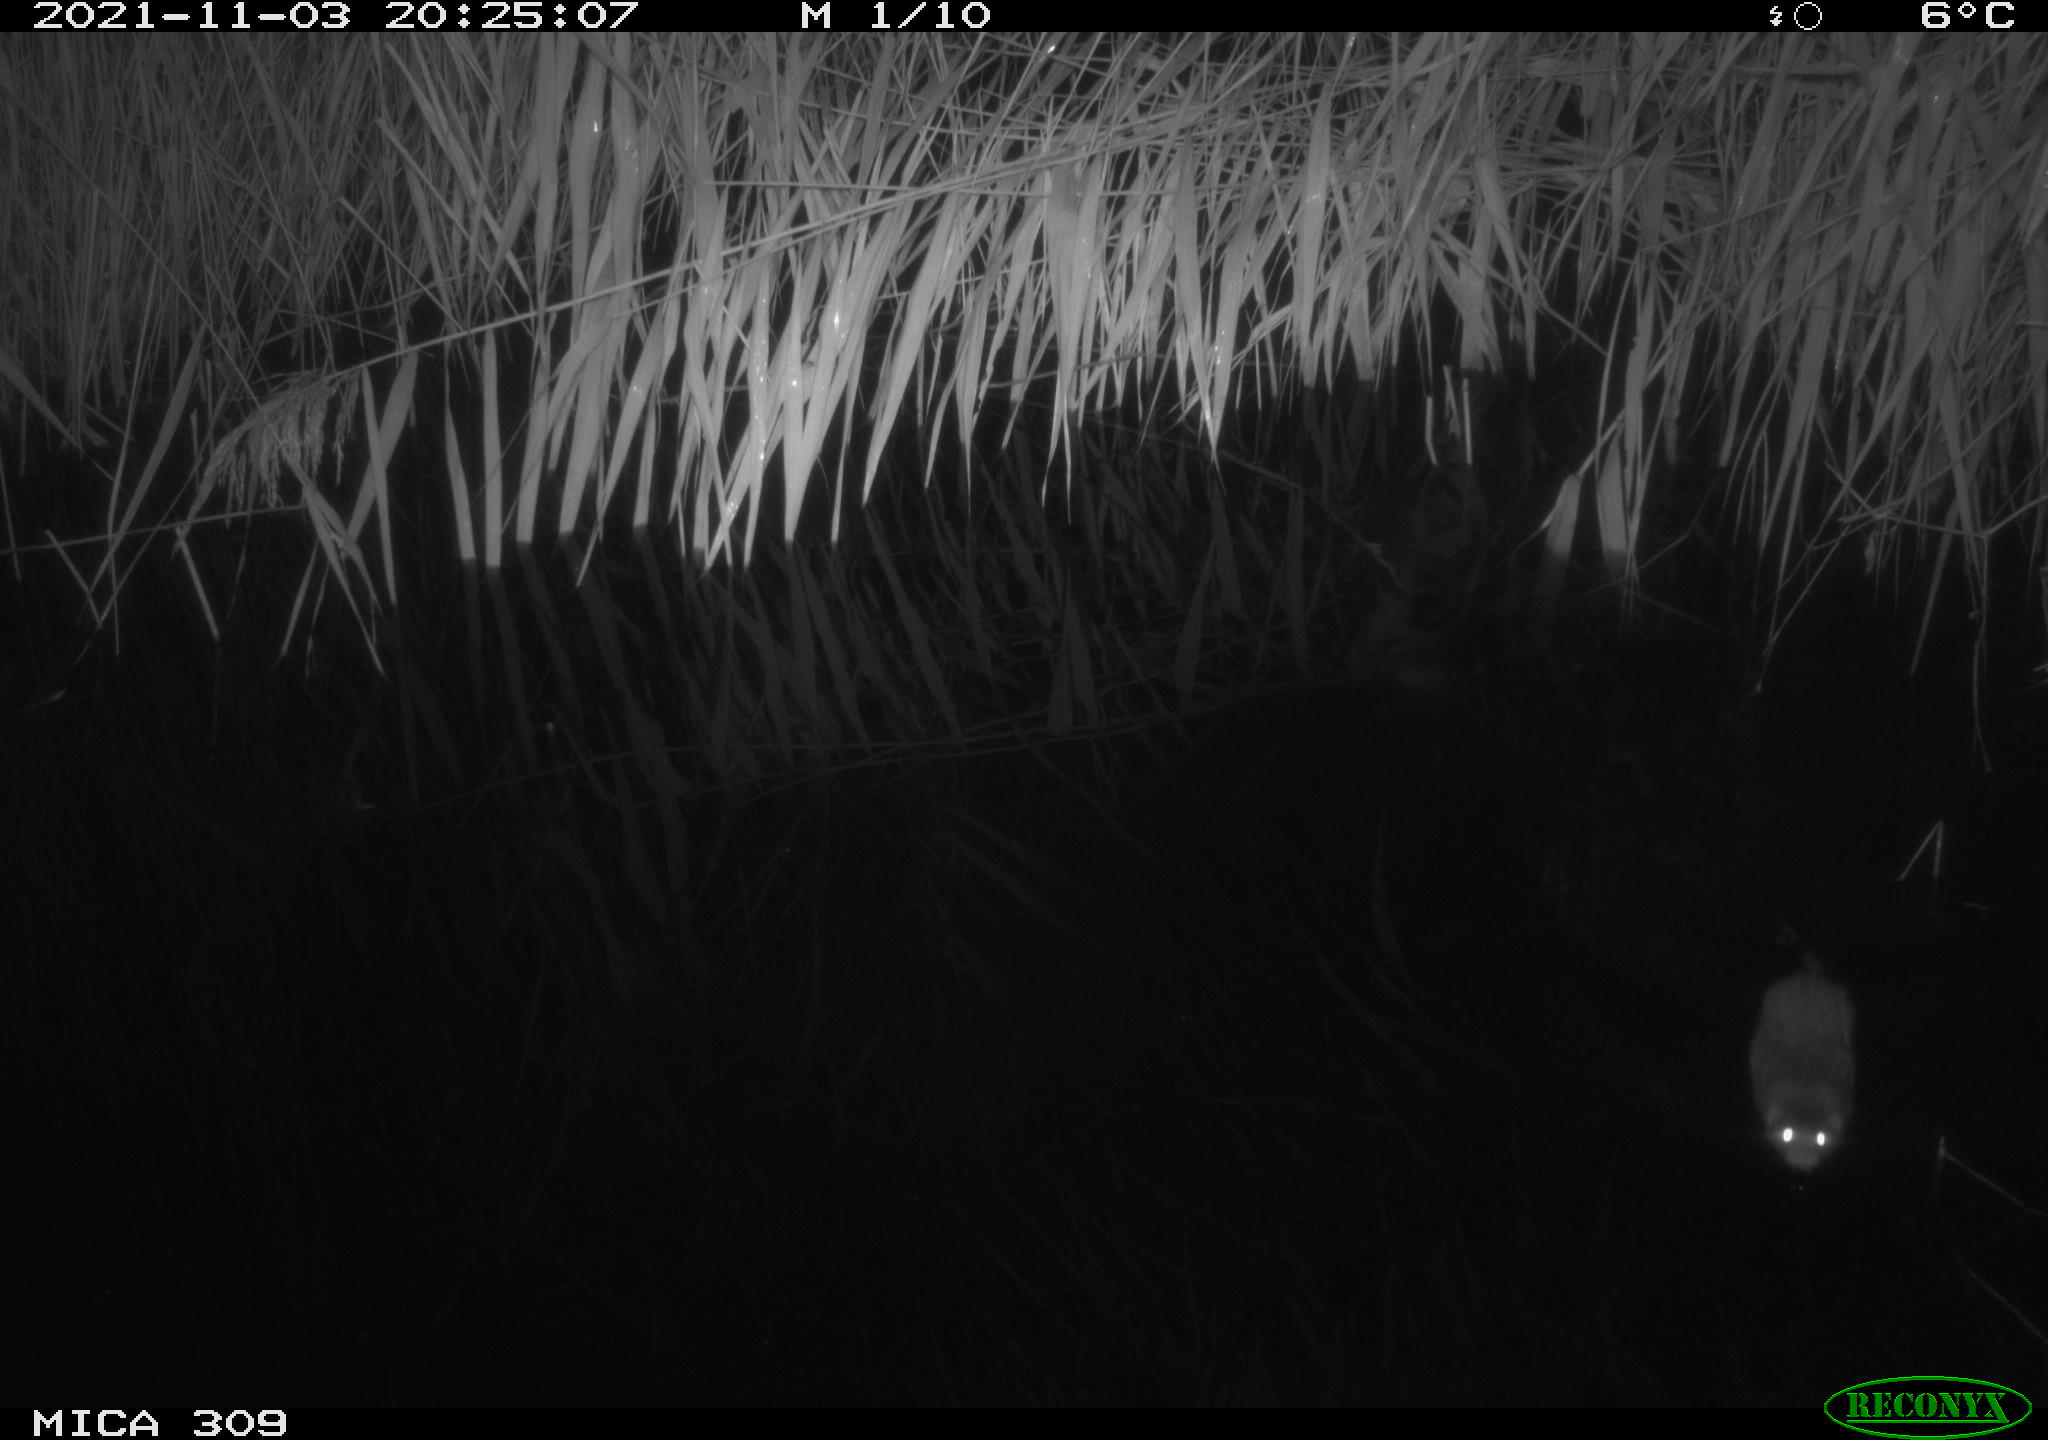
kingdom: Animalia
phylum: Chordata
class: Mammalia
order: Rodentia
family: Muridae
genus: Rattus
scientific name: Rattus norvegicus
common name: Brown rat
